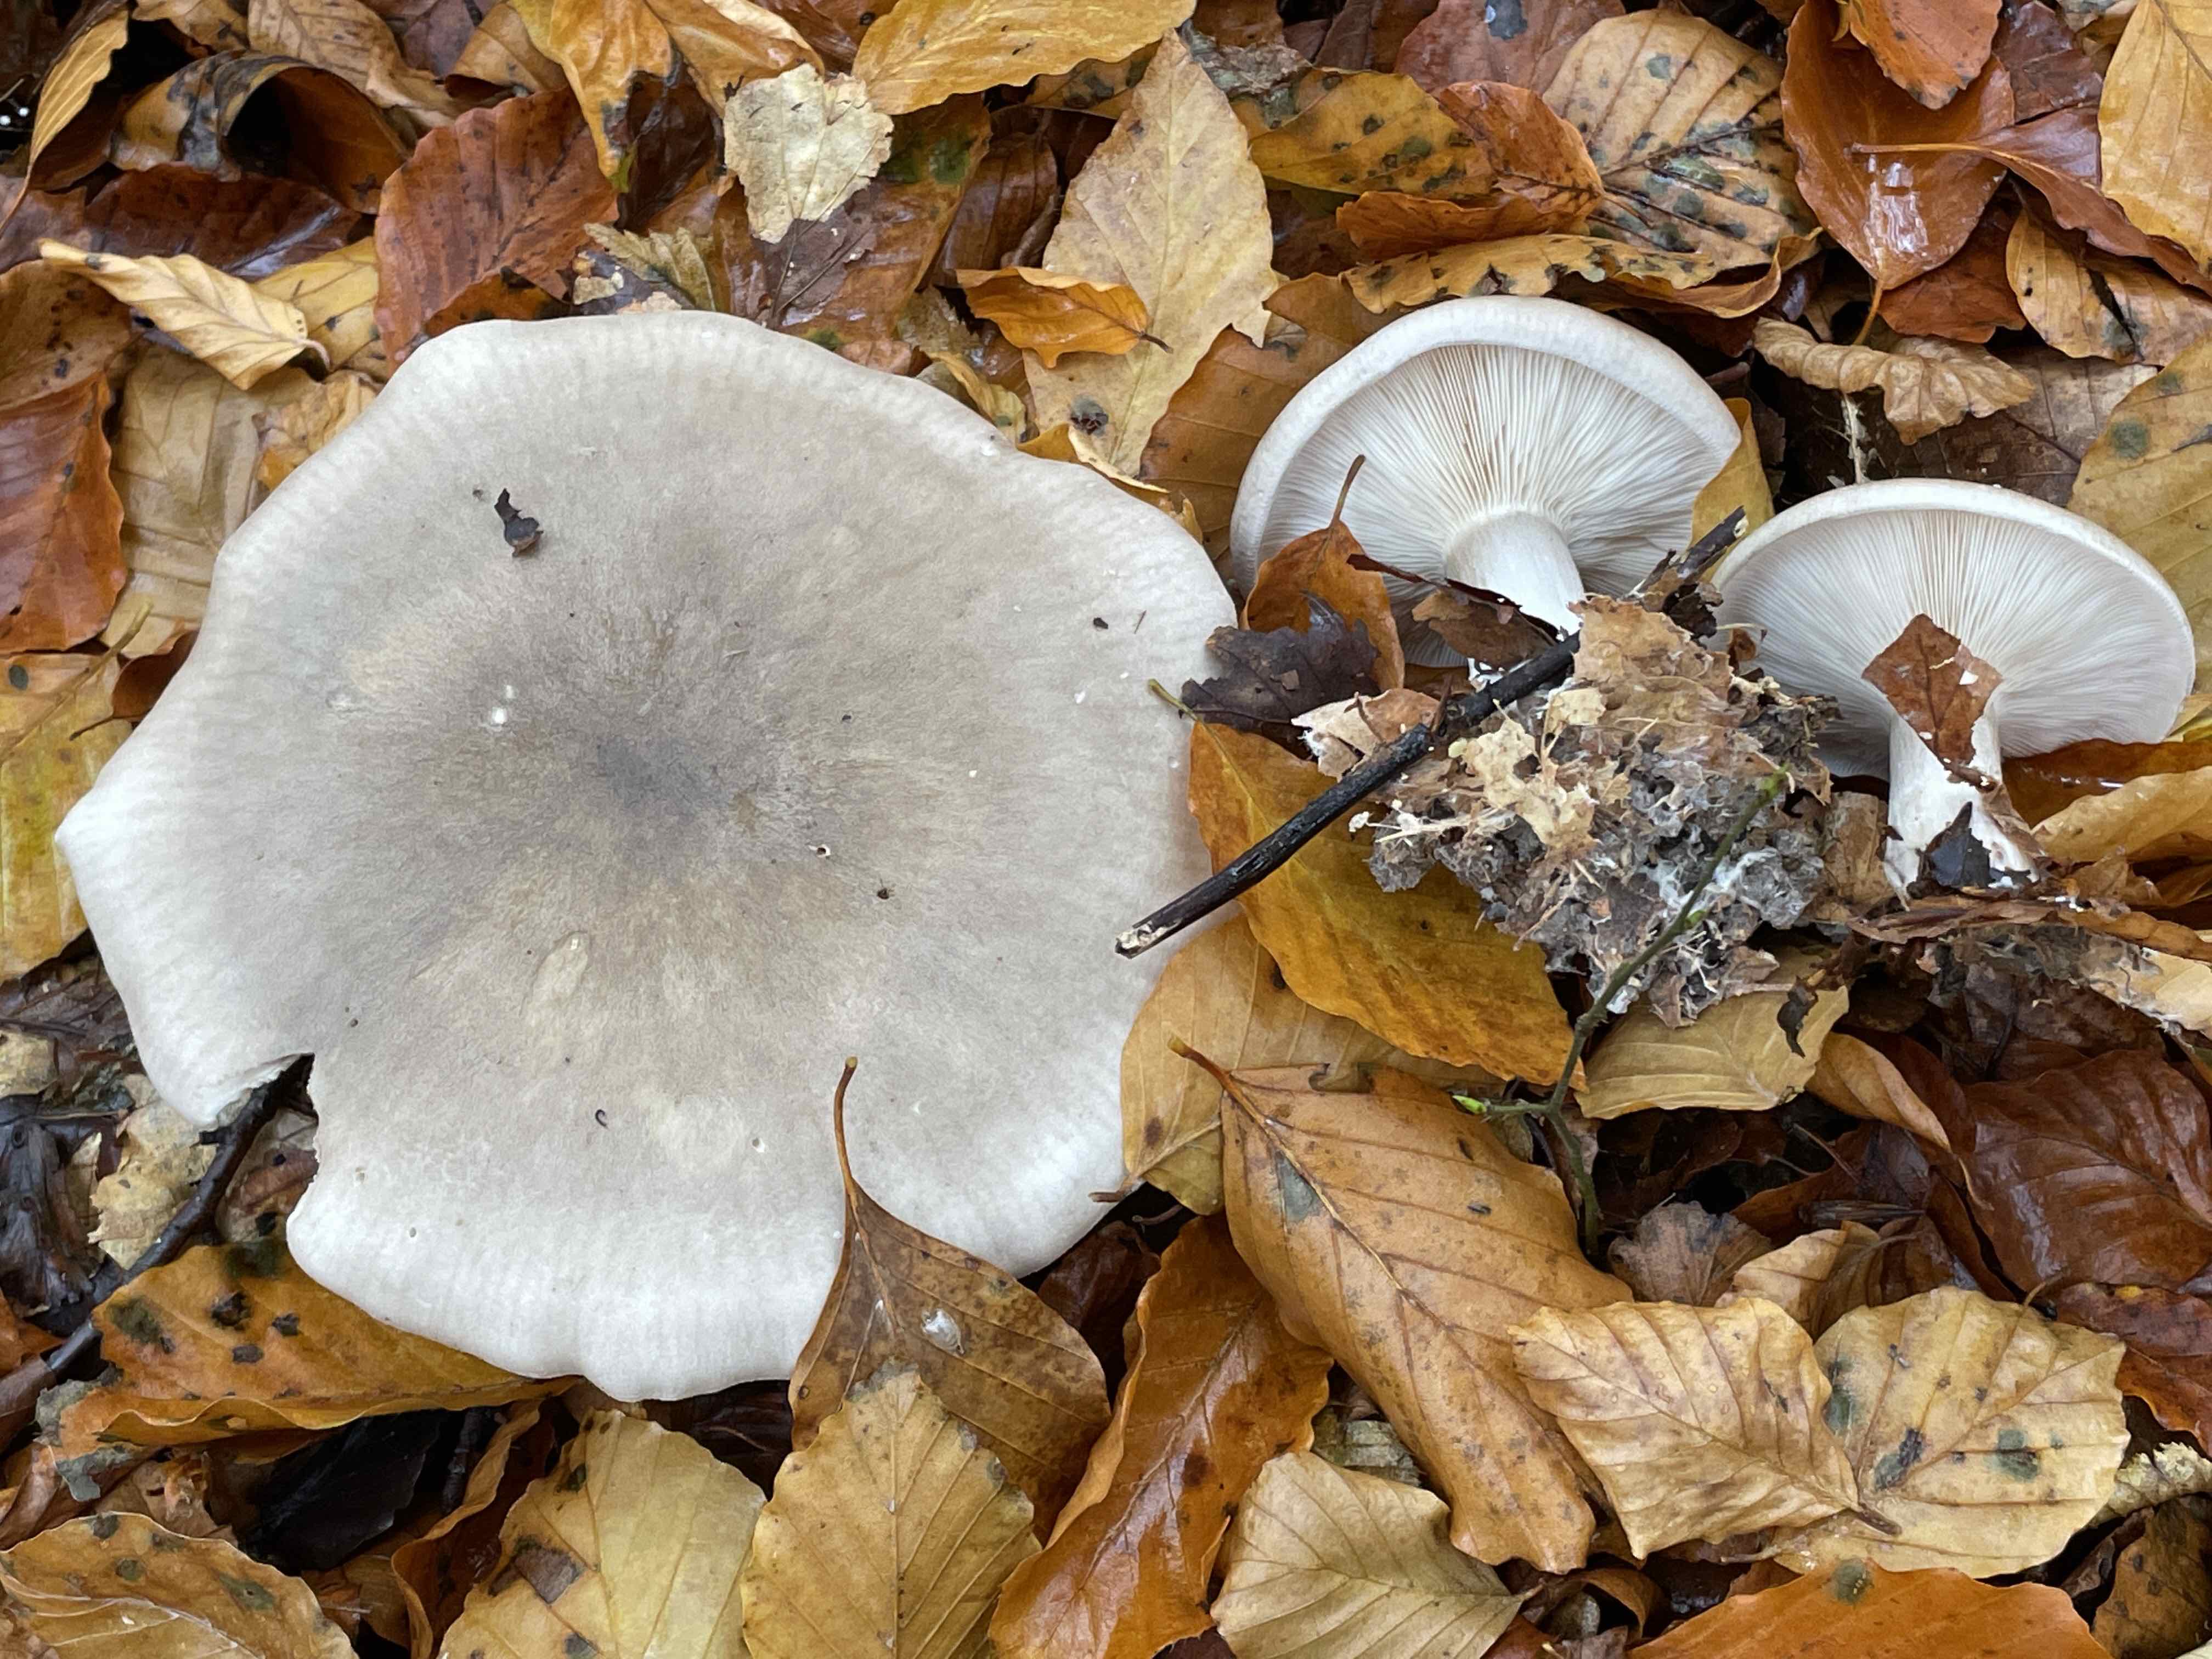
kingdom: Fungi
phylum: Basidiomycota
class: Agaricomycetes
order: Agaricales
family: Tricholomataceae
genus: Clitocybe
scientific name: Clitocybe nebularis
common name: tåge-tragthat
